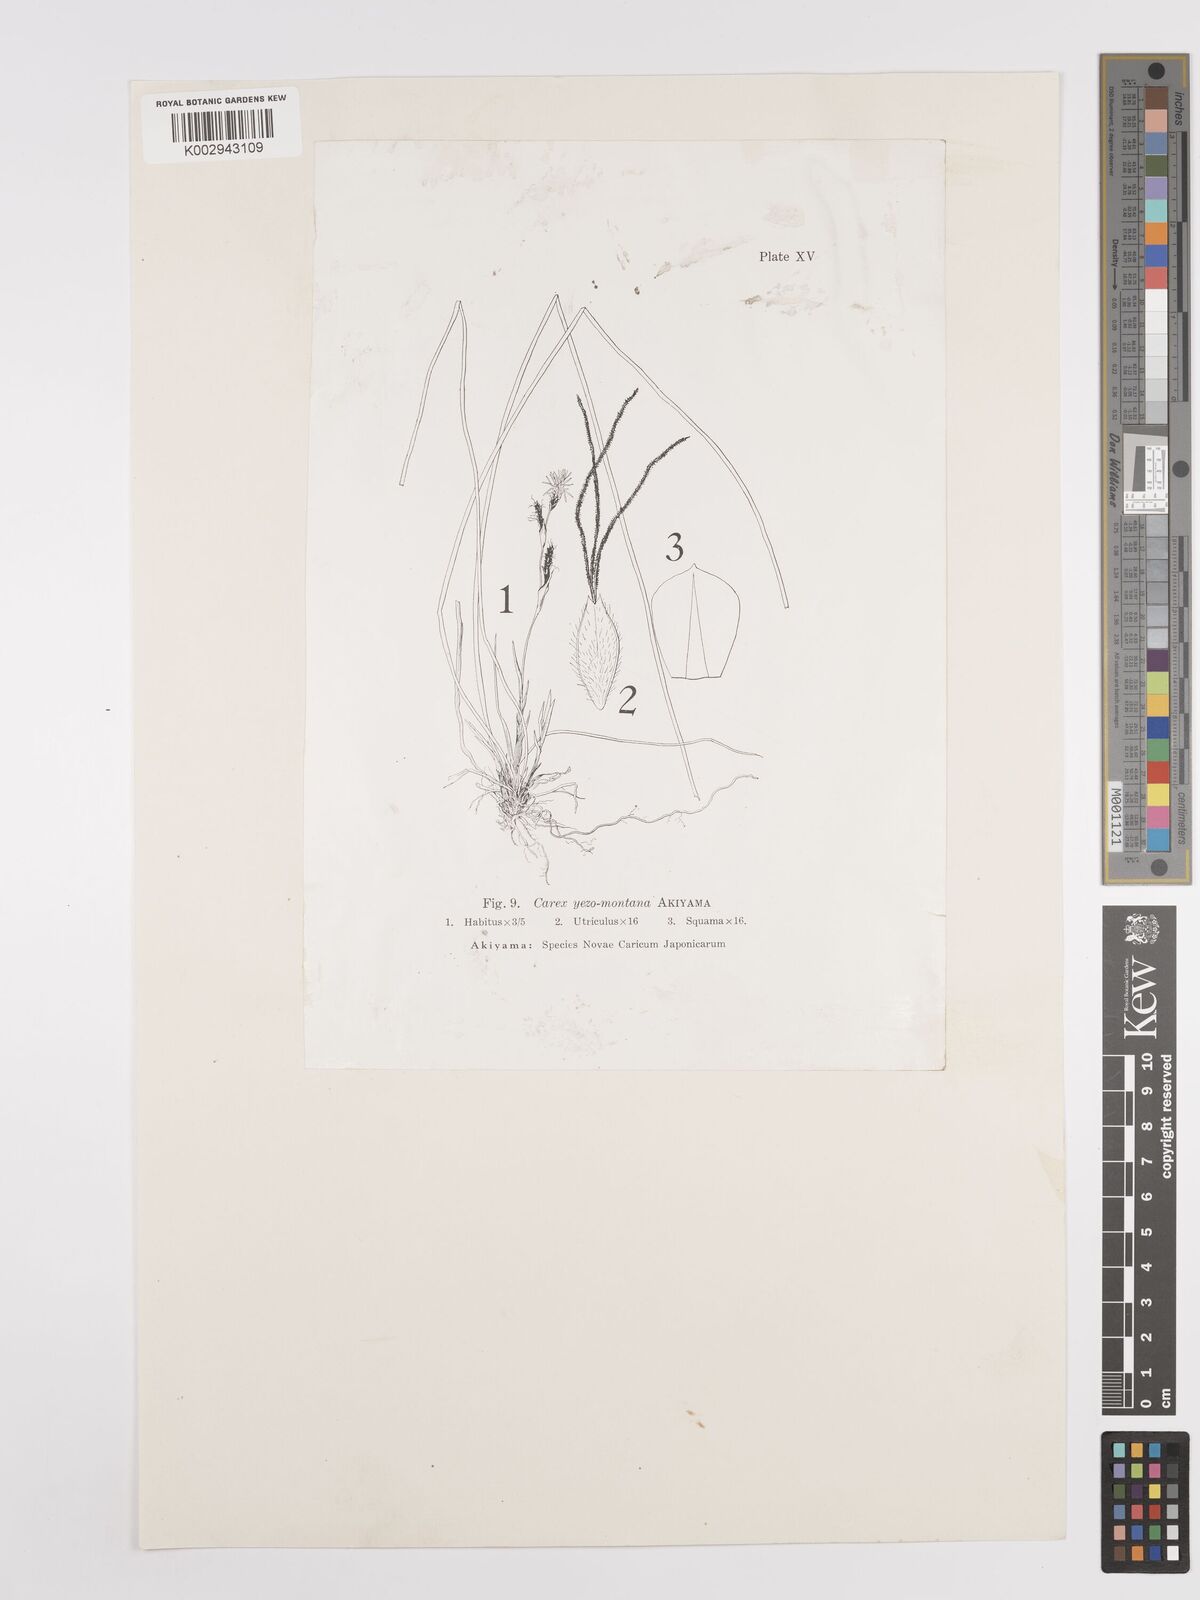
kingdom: Plantae
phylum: Tracheophyta
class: Liliopsida
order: Poales
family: Cyperaceae
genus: Carex
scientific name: Carex blepharicarpa
